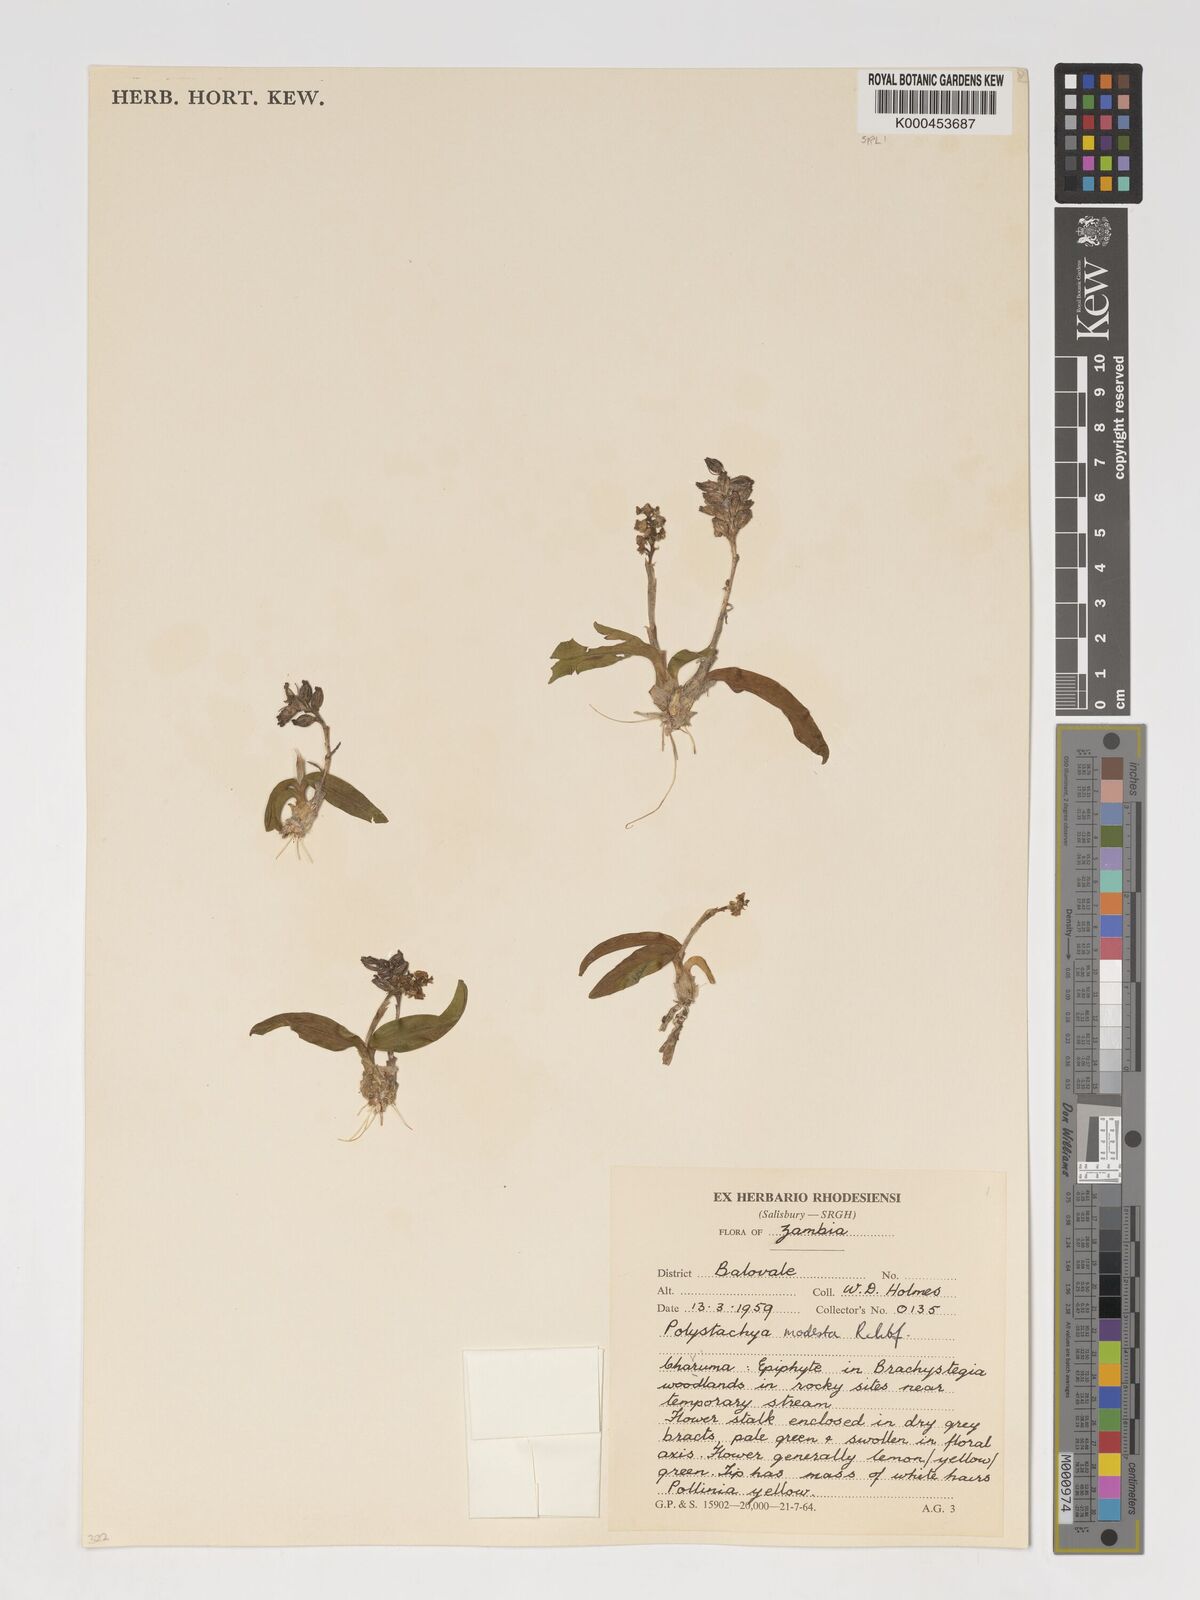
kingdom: Plantae
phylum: Tracheophyta
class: Liliopsida
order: Asparagales
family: Orchidaceae
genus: Polystachya
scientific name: Polystachya modesta
